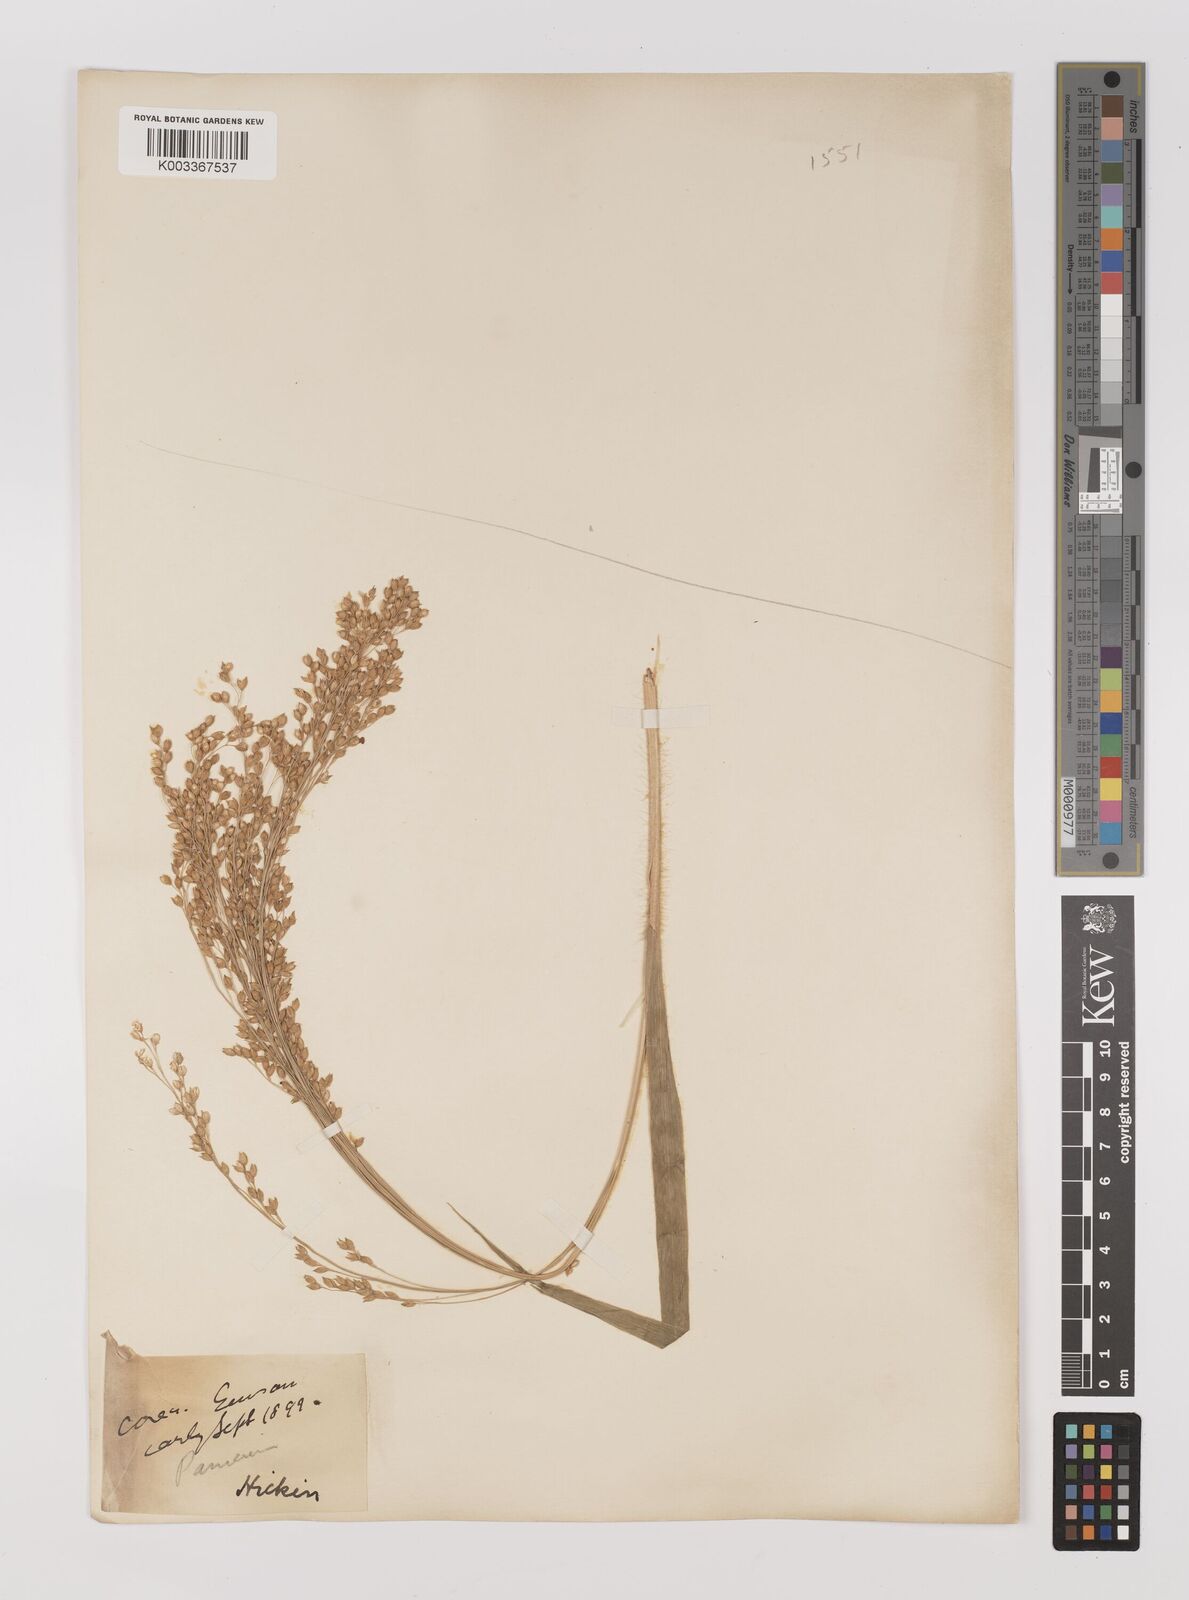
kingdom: Plantae
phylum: Tracheophyta
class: Liliopsida
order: Poales
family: Poaceae
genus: Panicum
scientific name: Panicum miliaceum
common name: Common millet
